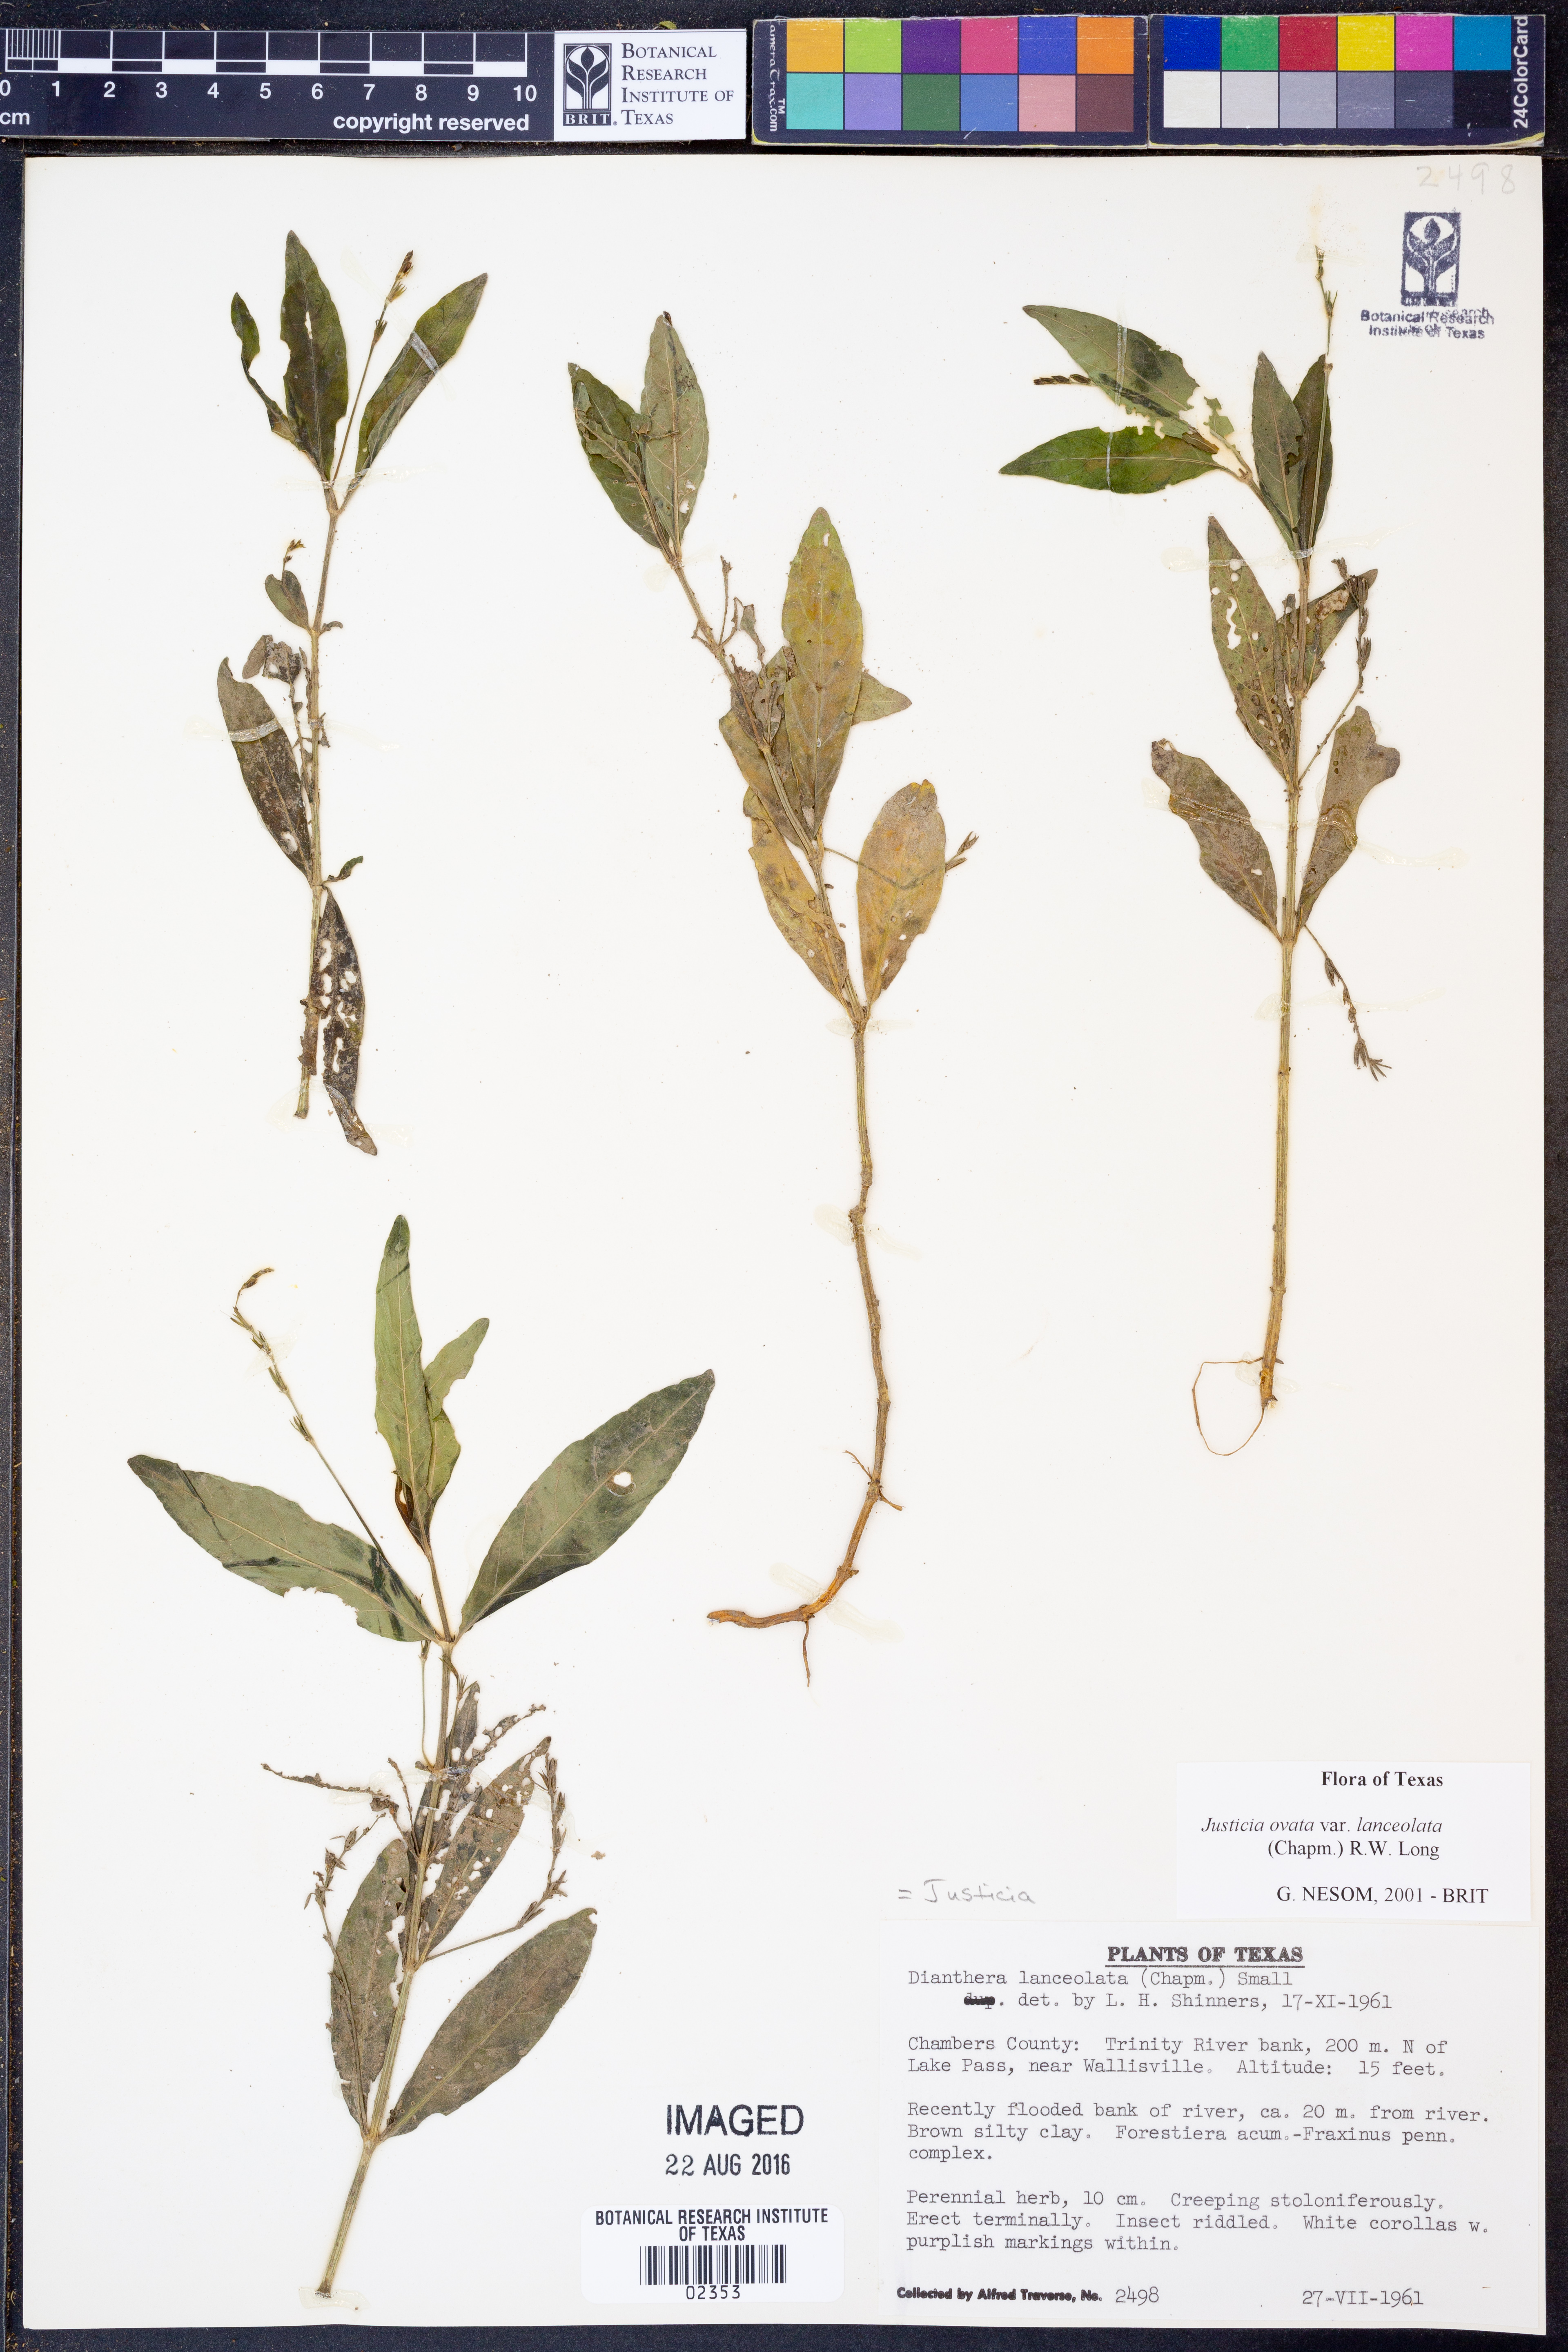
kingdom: Plantae
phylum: Tracheophyta
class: Magnoliopsida
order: Lamiales
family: Acanthaceae
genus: Justicia
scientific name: Justicia lanceolata
